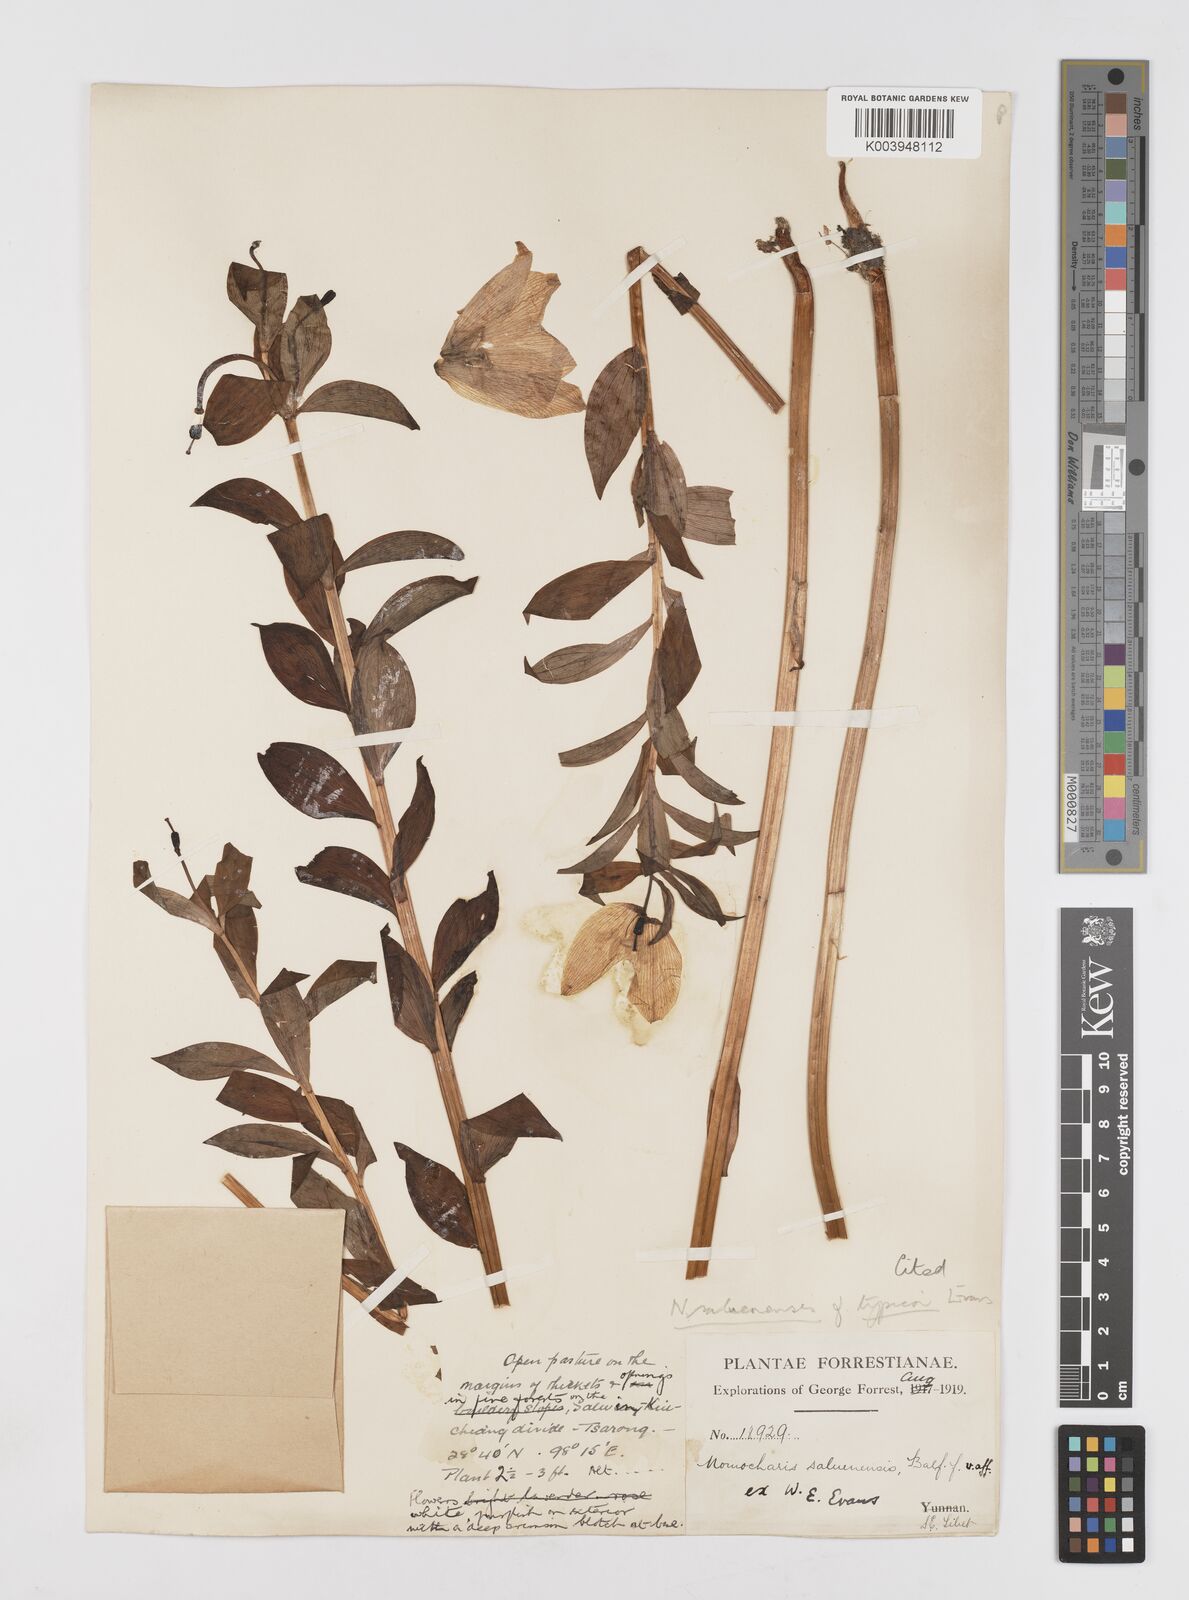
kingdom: Plantae
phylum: Tracheophyta
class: Liliopsida
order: Liliales
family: Liliaceae
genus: Lilium
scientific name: Lilium saluenense
